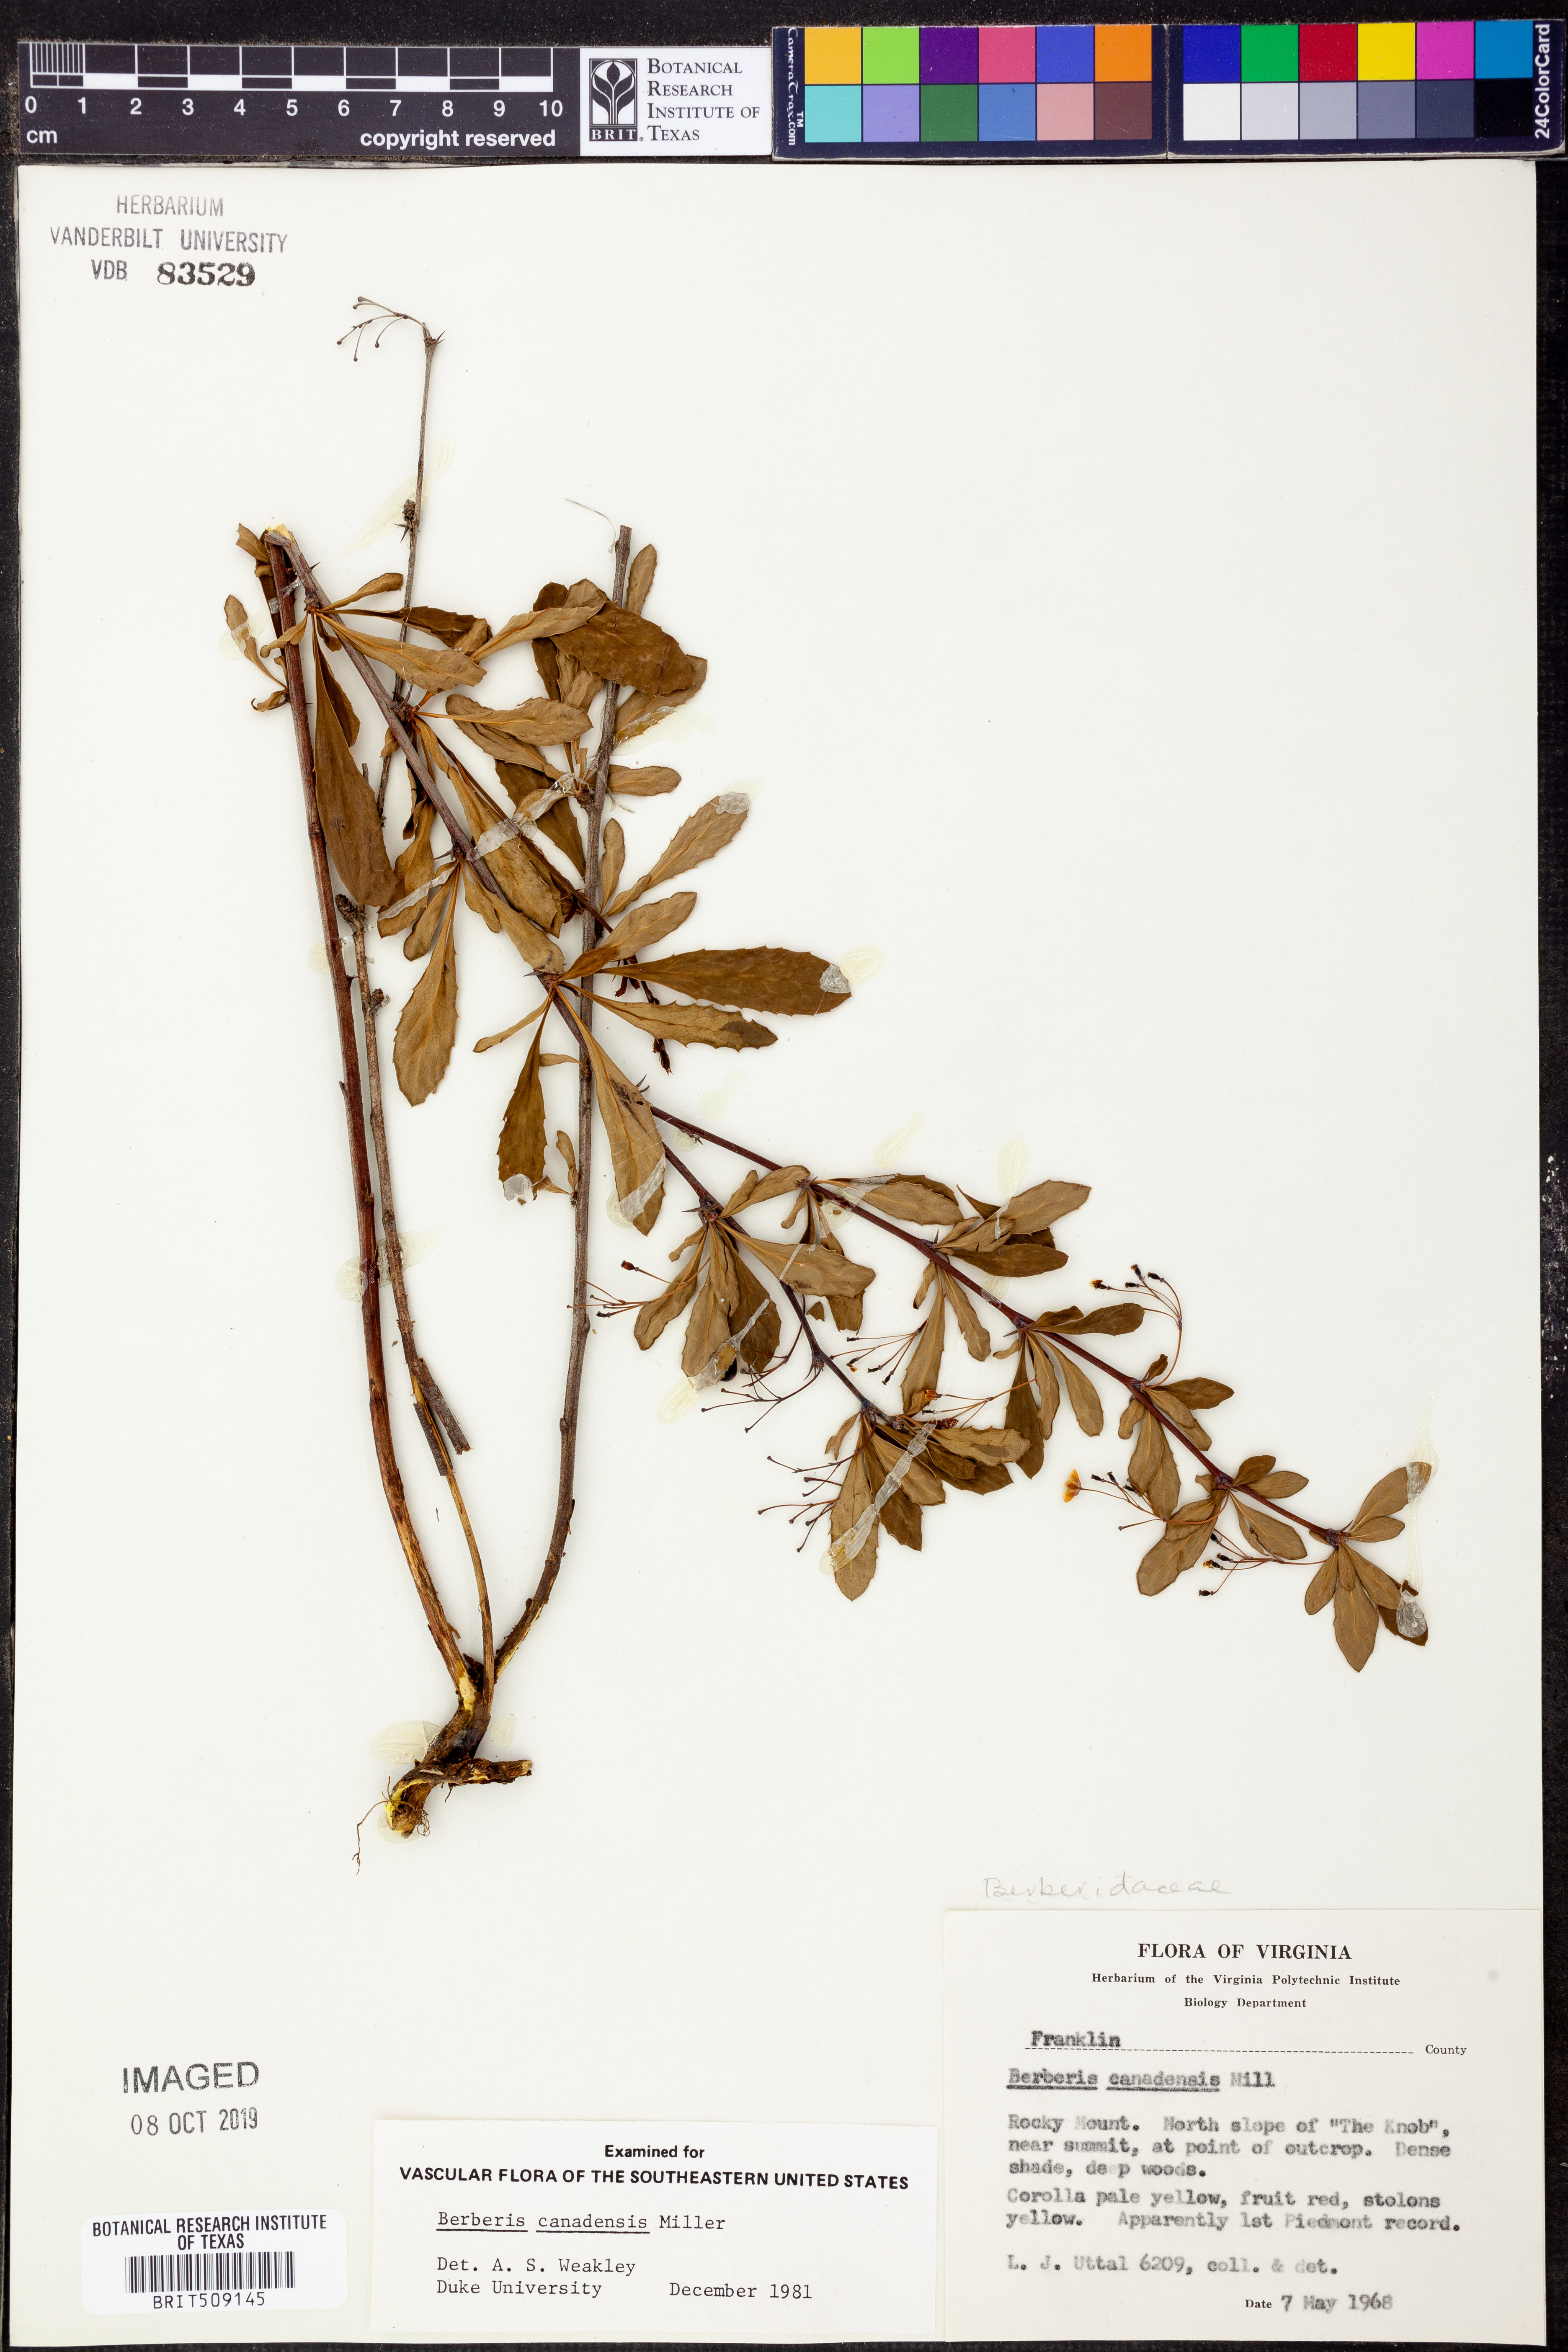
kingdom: Plantae
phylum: Tracheophyta
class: Magnoliopsida
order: Ranunculales
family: Berberidaceae
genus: Berberis
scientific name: Berberis canadensis
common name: American barberry
